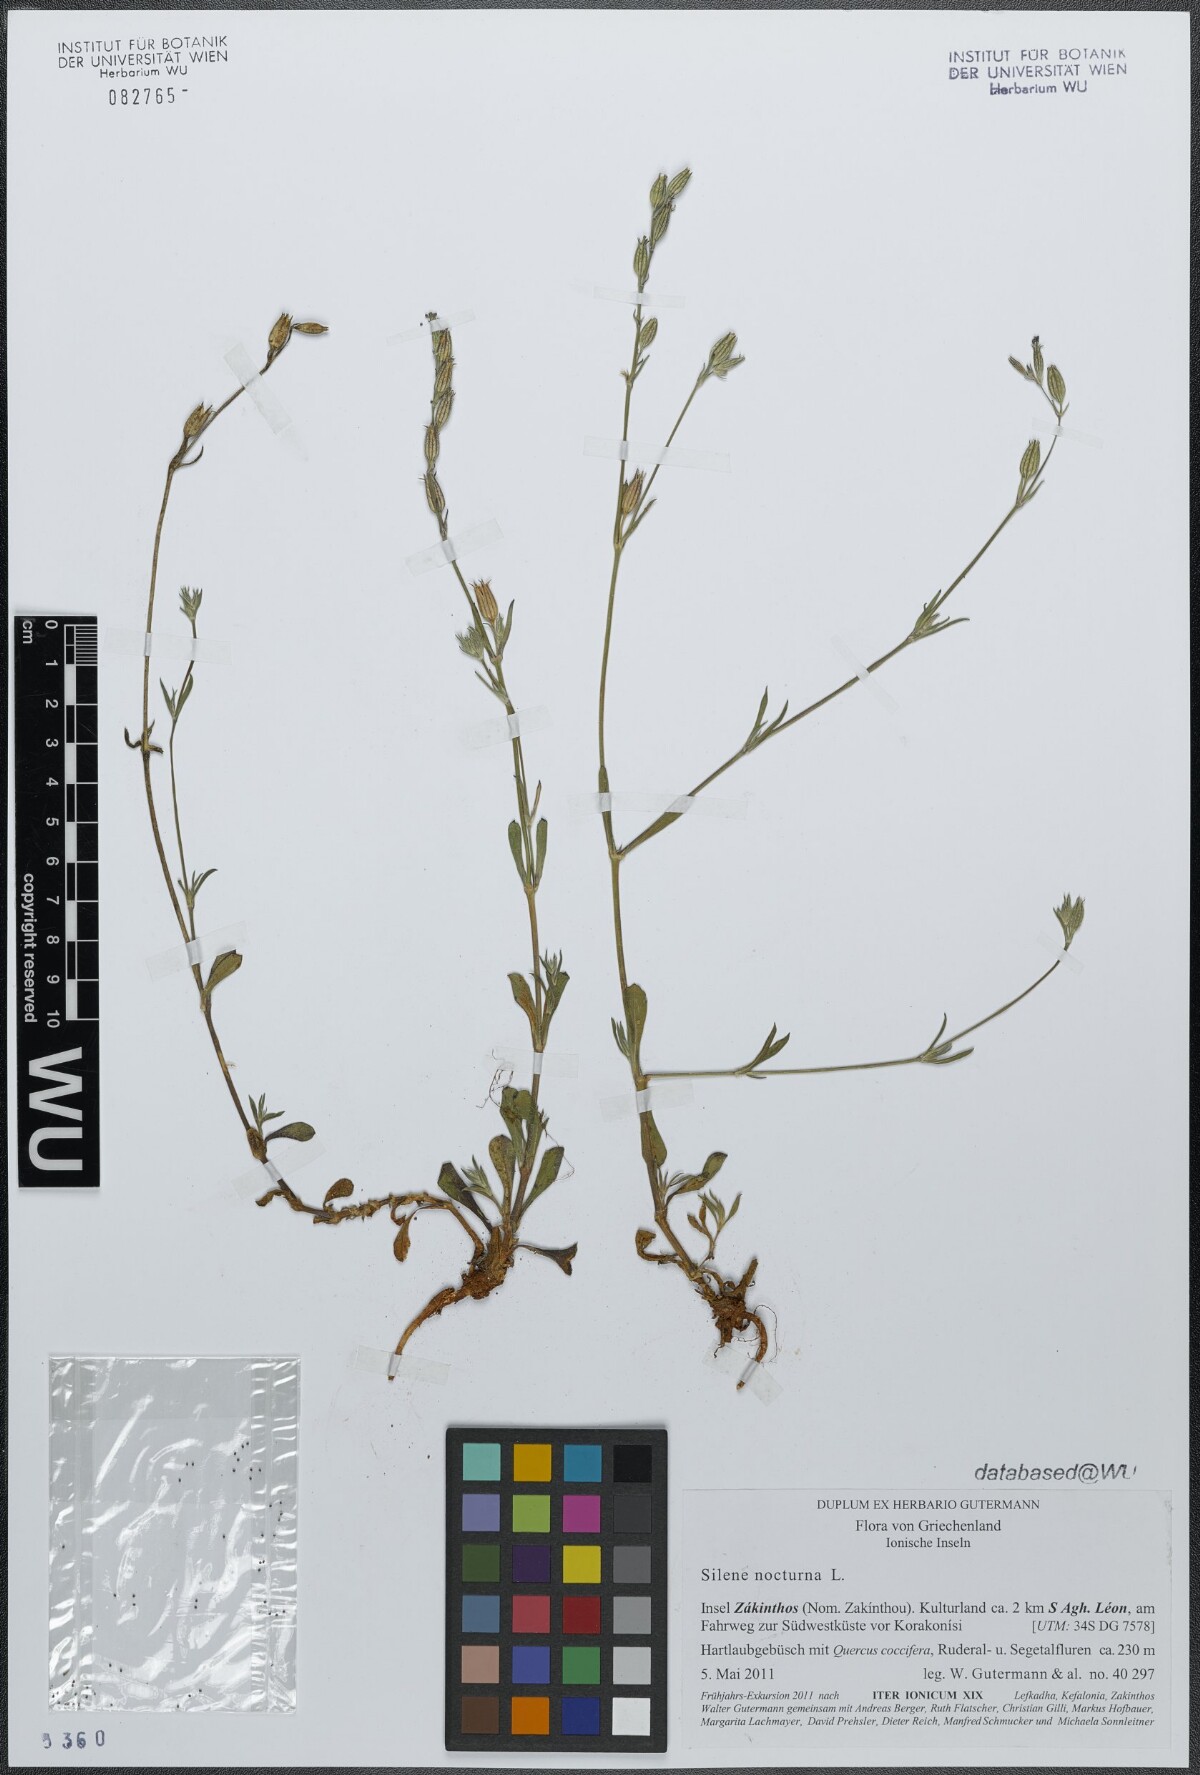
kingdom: Plantae
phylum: Tracheophyta
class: Magnoliopsida
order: Caryophyllales
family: Caryophyllaceae
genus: Silene
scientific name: Silene nocturna
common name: Mediterranean catchfly
